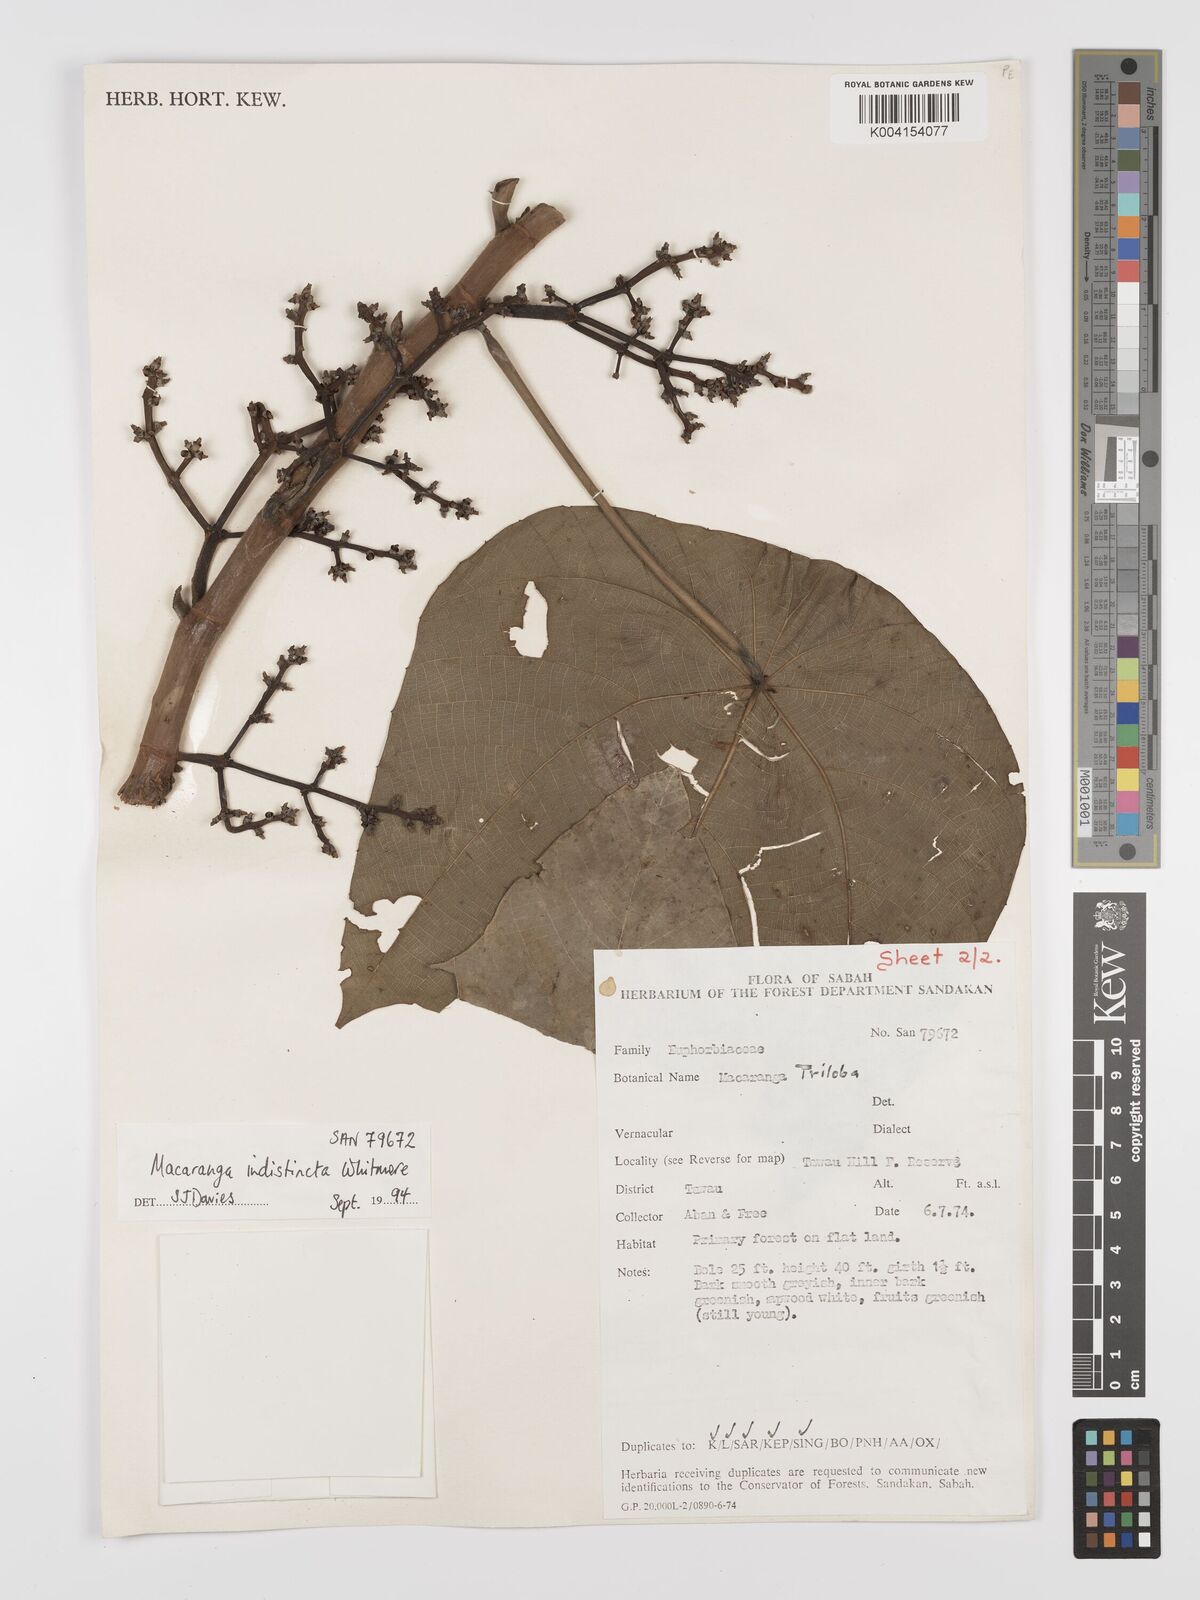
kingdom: Plantae
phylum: Tracheophyta
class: Magnoliopsida
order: Malpighiales
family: Euphorbiaceae
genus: Macaranga
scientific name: Macaranga indistincta
